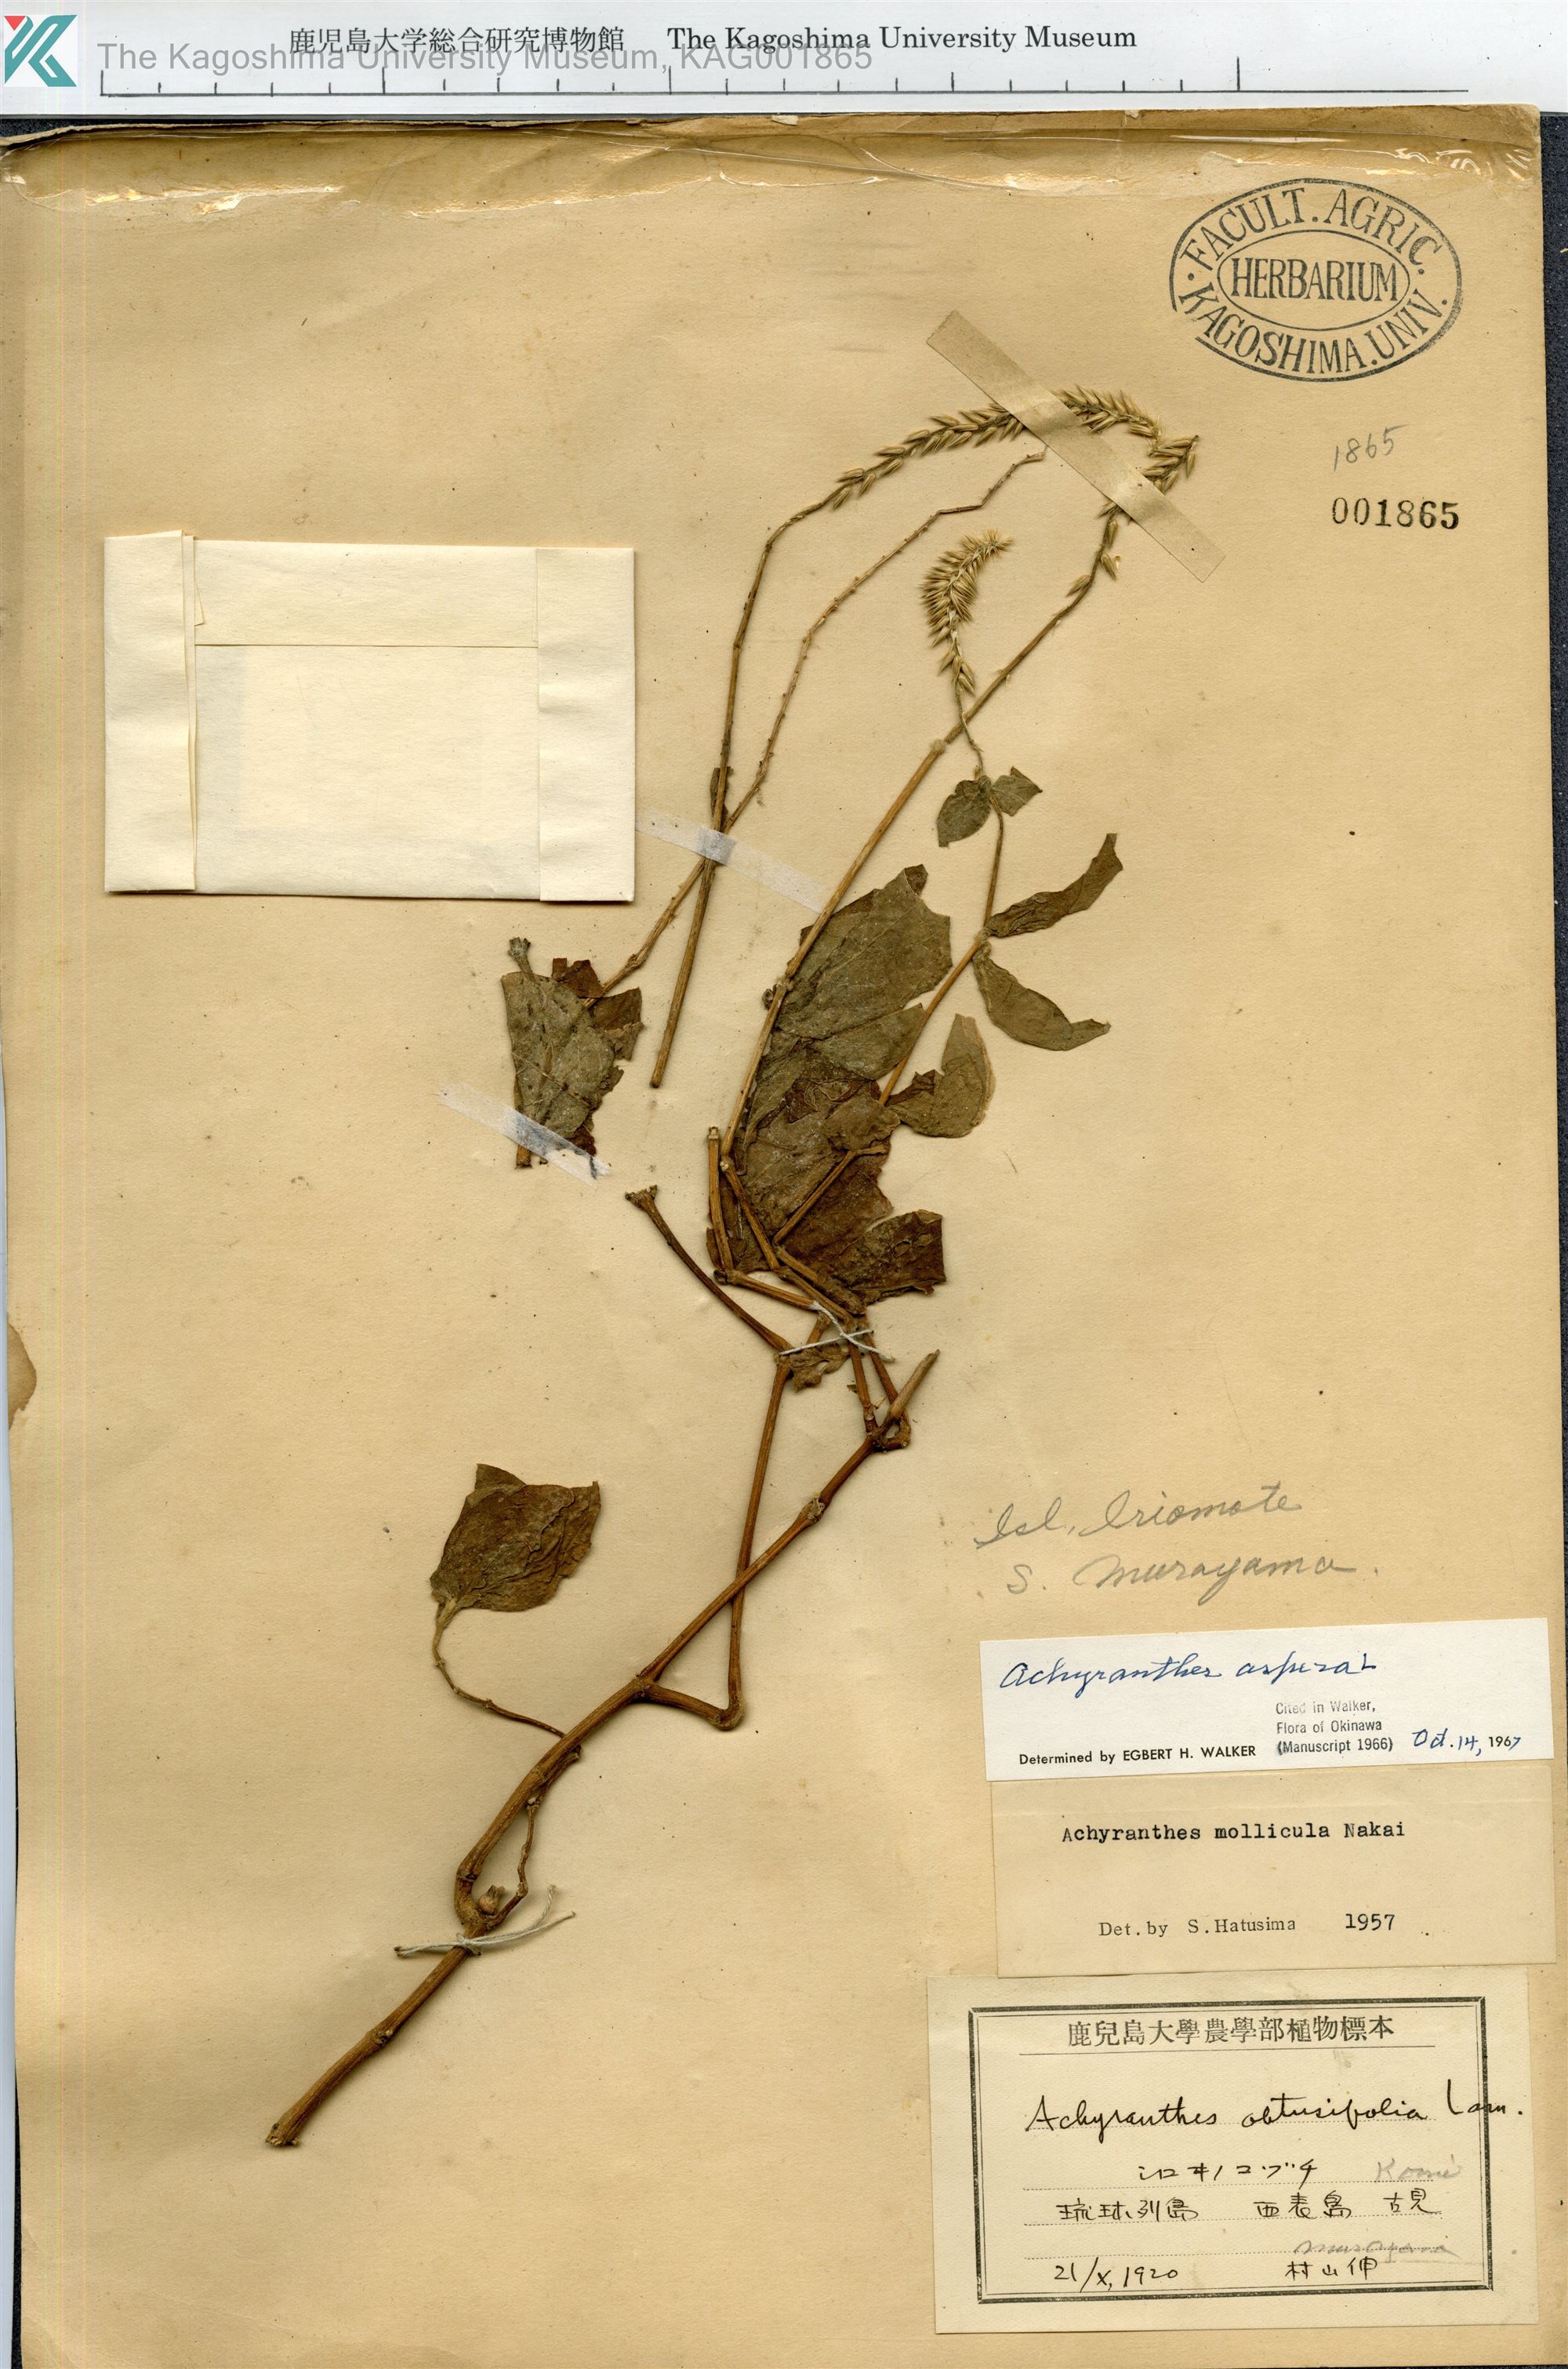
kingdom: Plantae
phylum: Tracheophyta
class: Magnoliopsida
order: Caryophyllales
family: Amaranthaceae
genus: Achyranthes
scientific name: Achyranthes aspera
